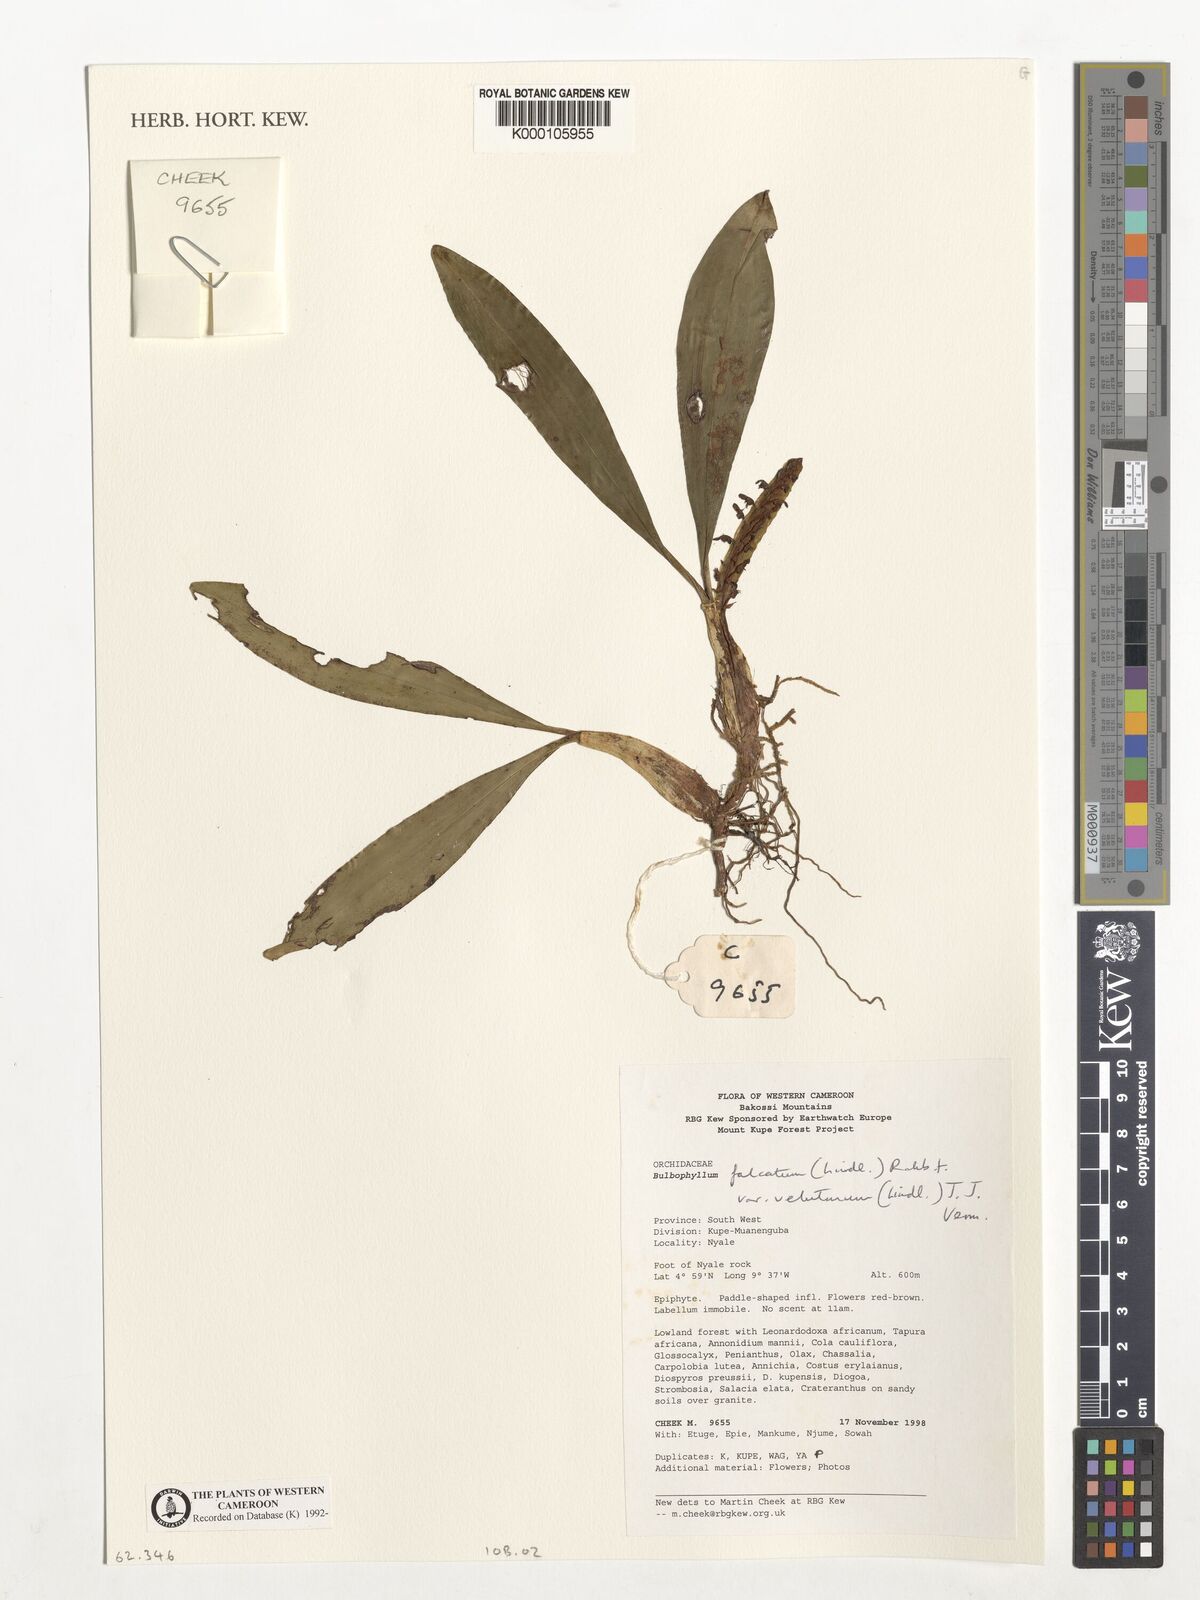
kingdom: Plantae
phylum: Tracheophyta
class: Liliopsida
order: Asparagales
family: Orchidaceae
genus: Bulbophyllum
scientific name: Bulbophyllum falcatum
